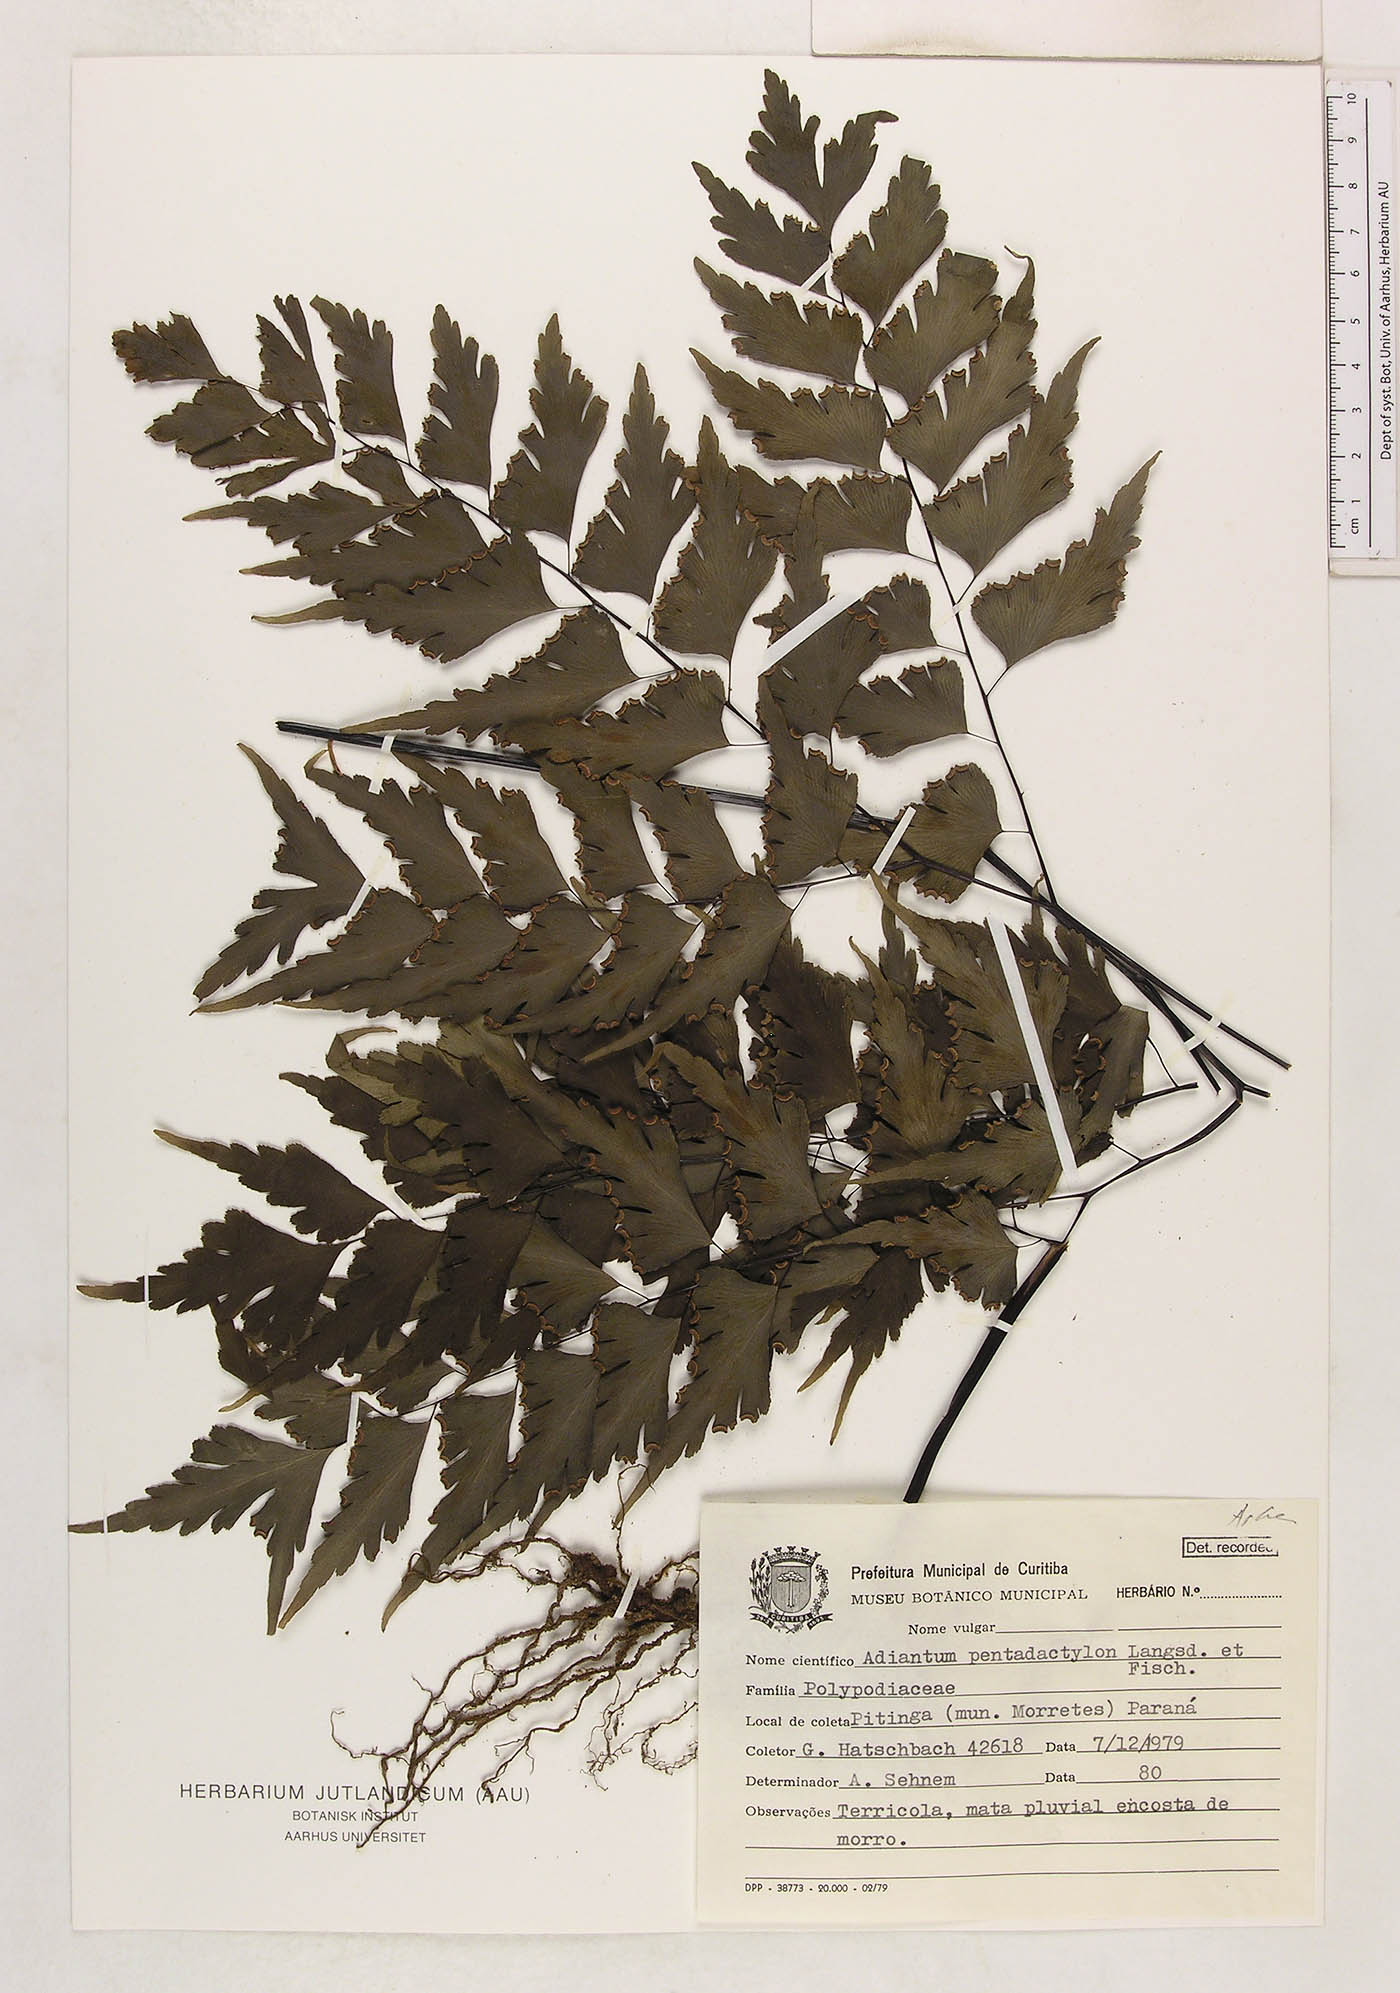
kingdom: Plantae
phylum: Tracheophyta
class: Polypodiopsida
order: Polypodiales
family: Pteridaceae
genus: Adiantum
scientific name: Adiantum pentadactylon
